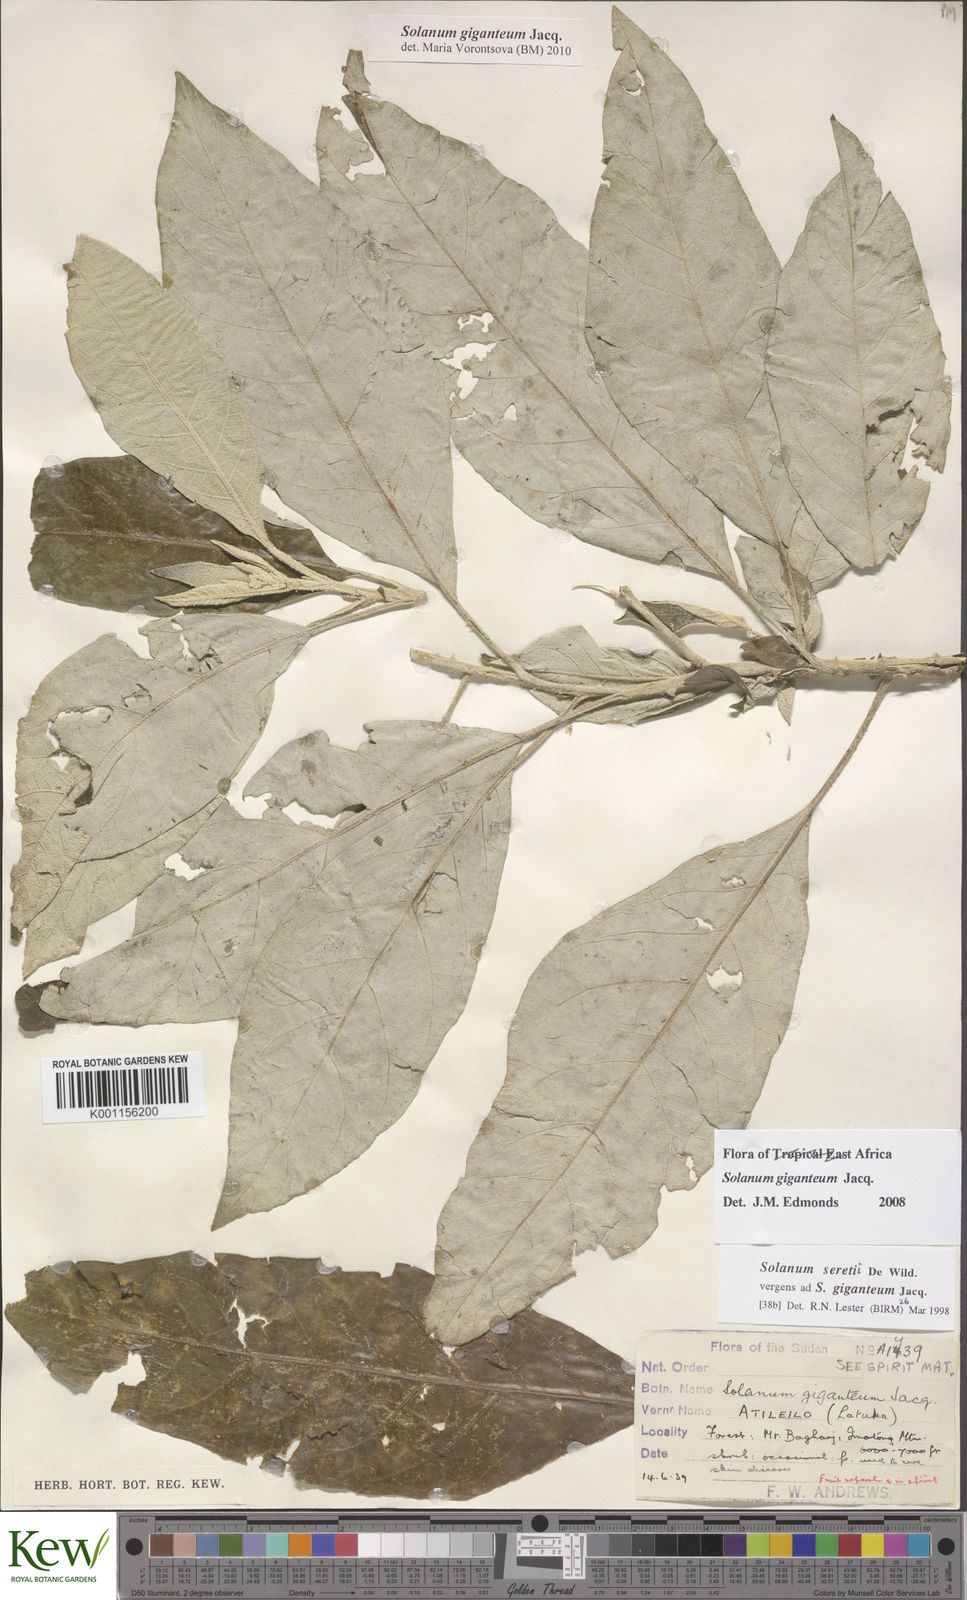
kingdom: Plantae
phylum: Tracheophyta
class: Magnoliopsida
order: Solanales
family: Solanaceae
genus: Solanum
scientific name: Solanum giganteum
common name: Healing-leaf-tree
